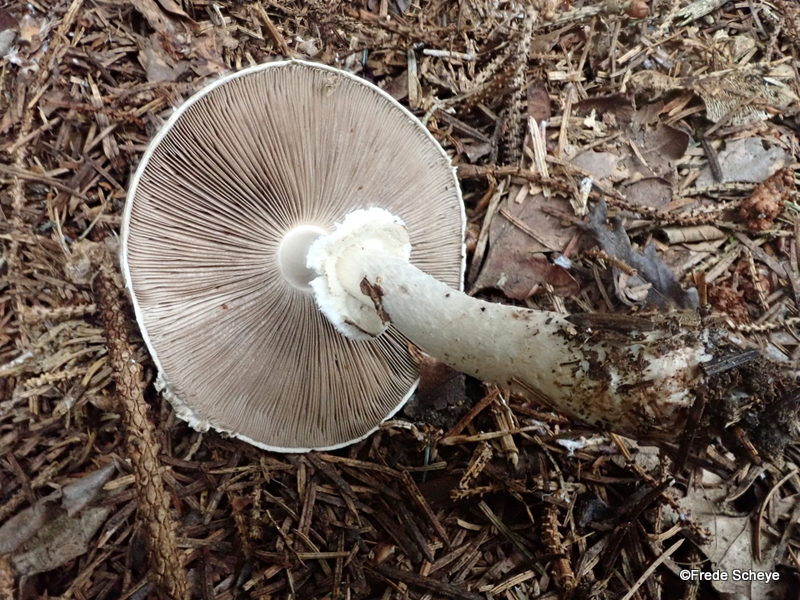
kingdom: Fungi
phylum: Basidiomycota
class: Agaricomycetes
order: Agaricales
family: Agaricaceae
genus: Agaricus
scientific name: Agaricus impudicus
